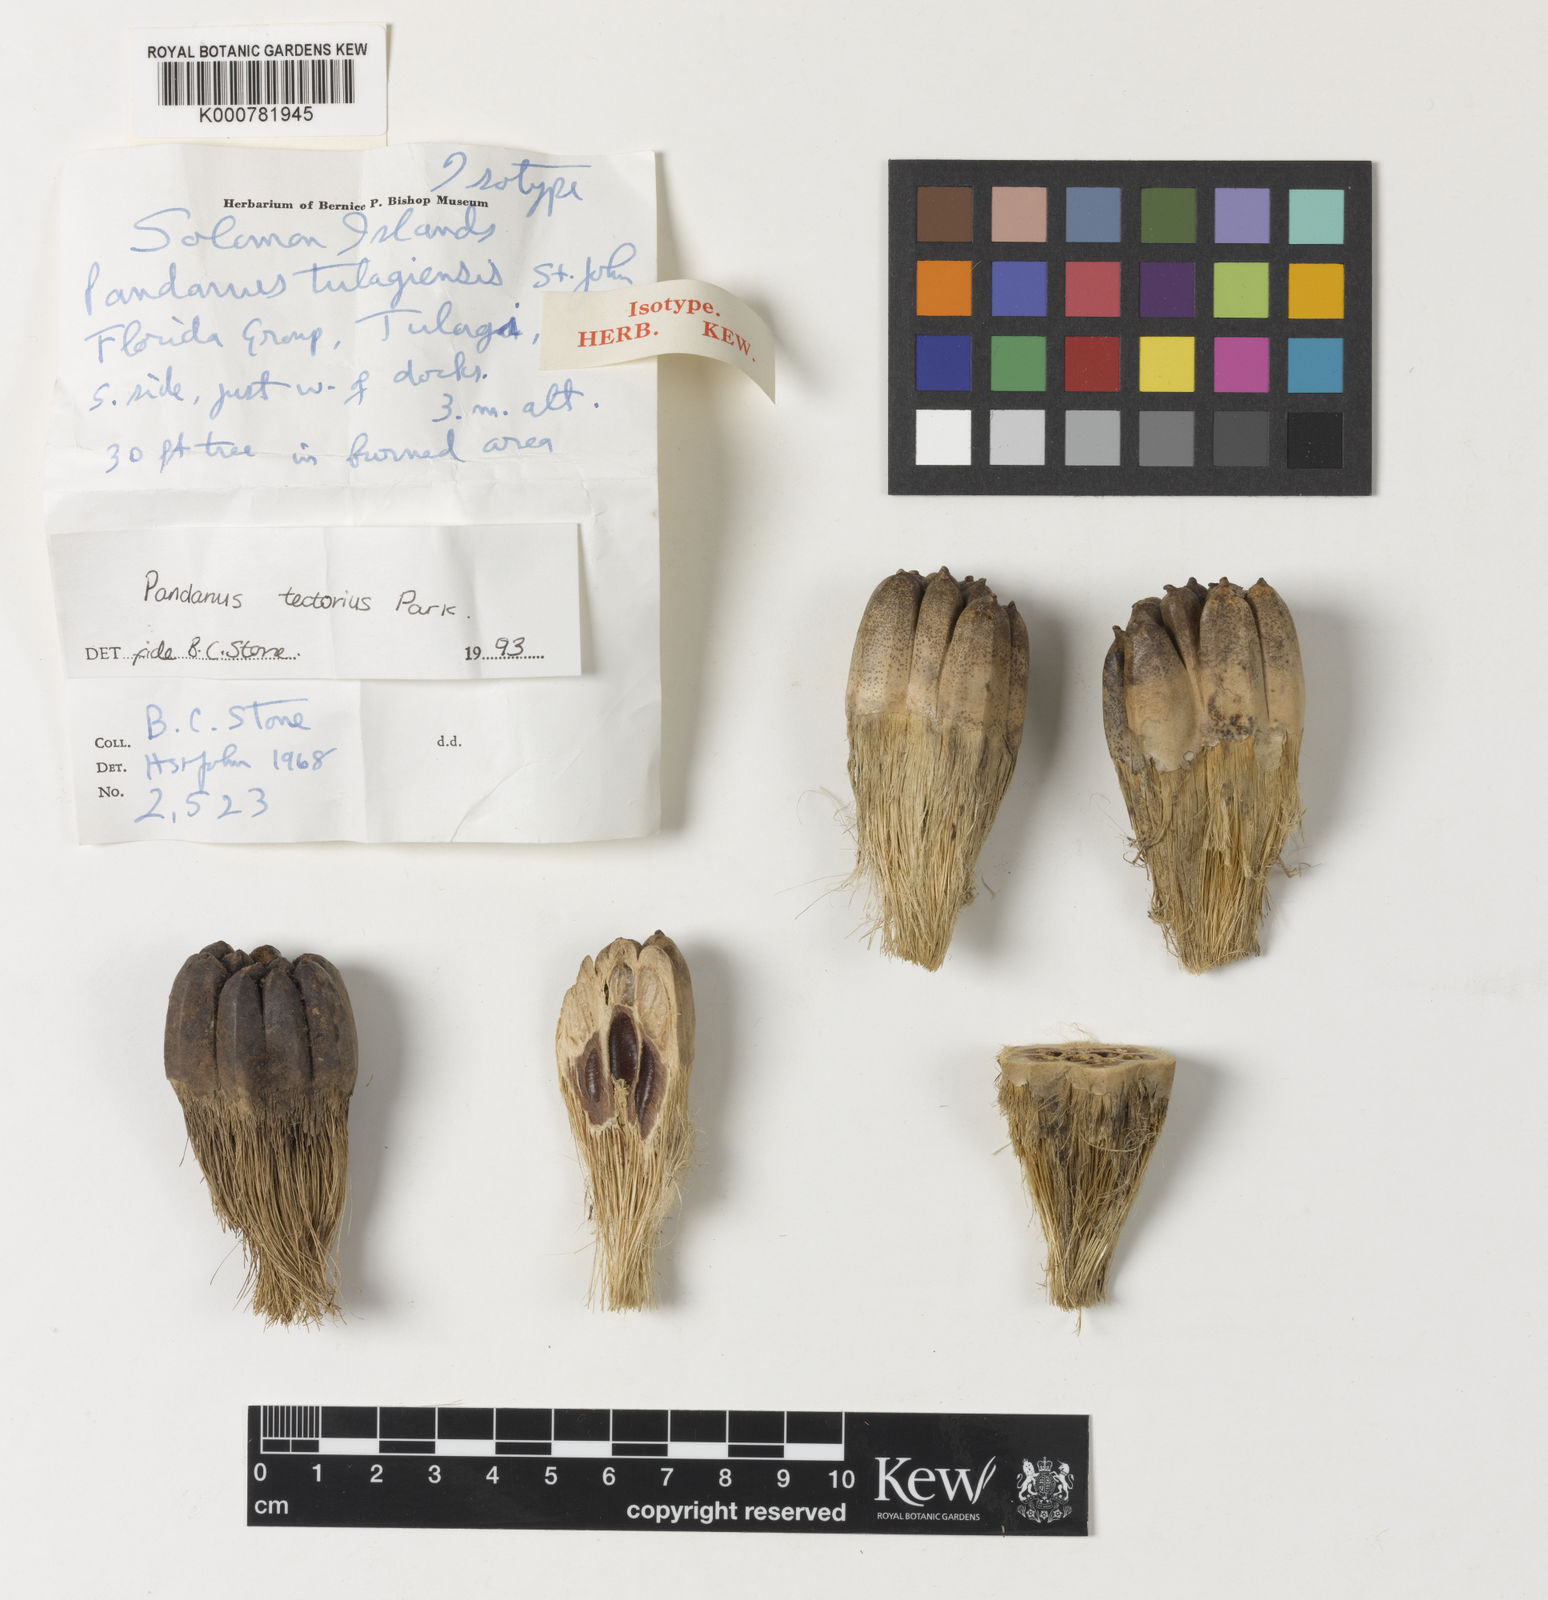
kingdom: Plantae
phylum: Tracheophyta
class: Liliopsida
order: Pandanales
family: Pandanaceae
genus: Pandanus
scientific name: Pandanus
